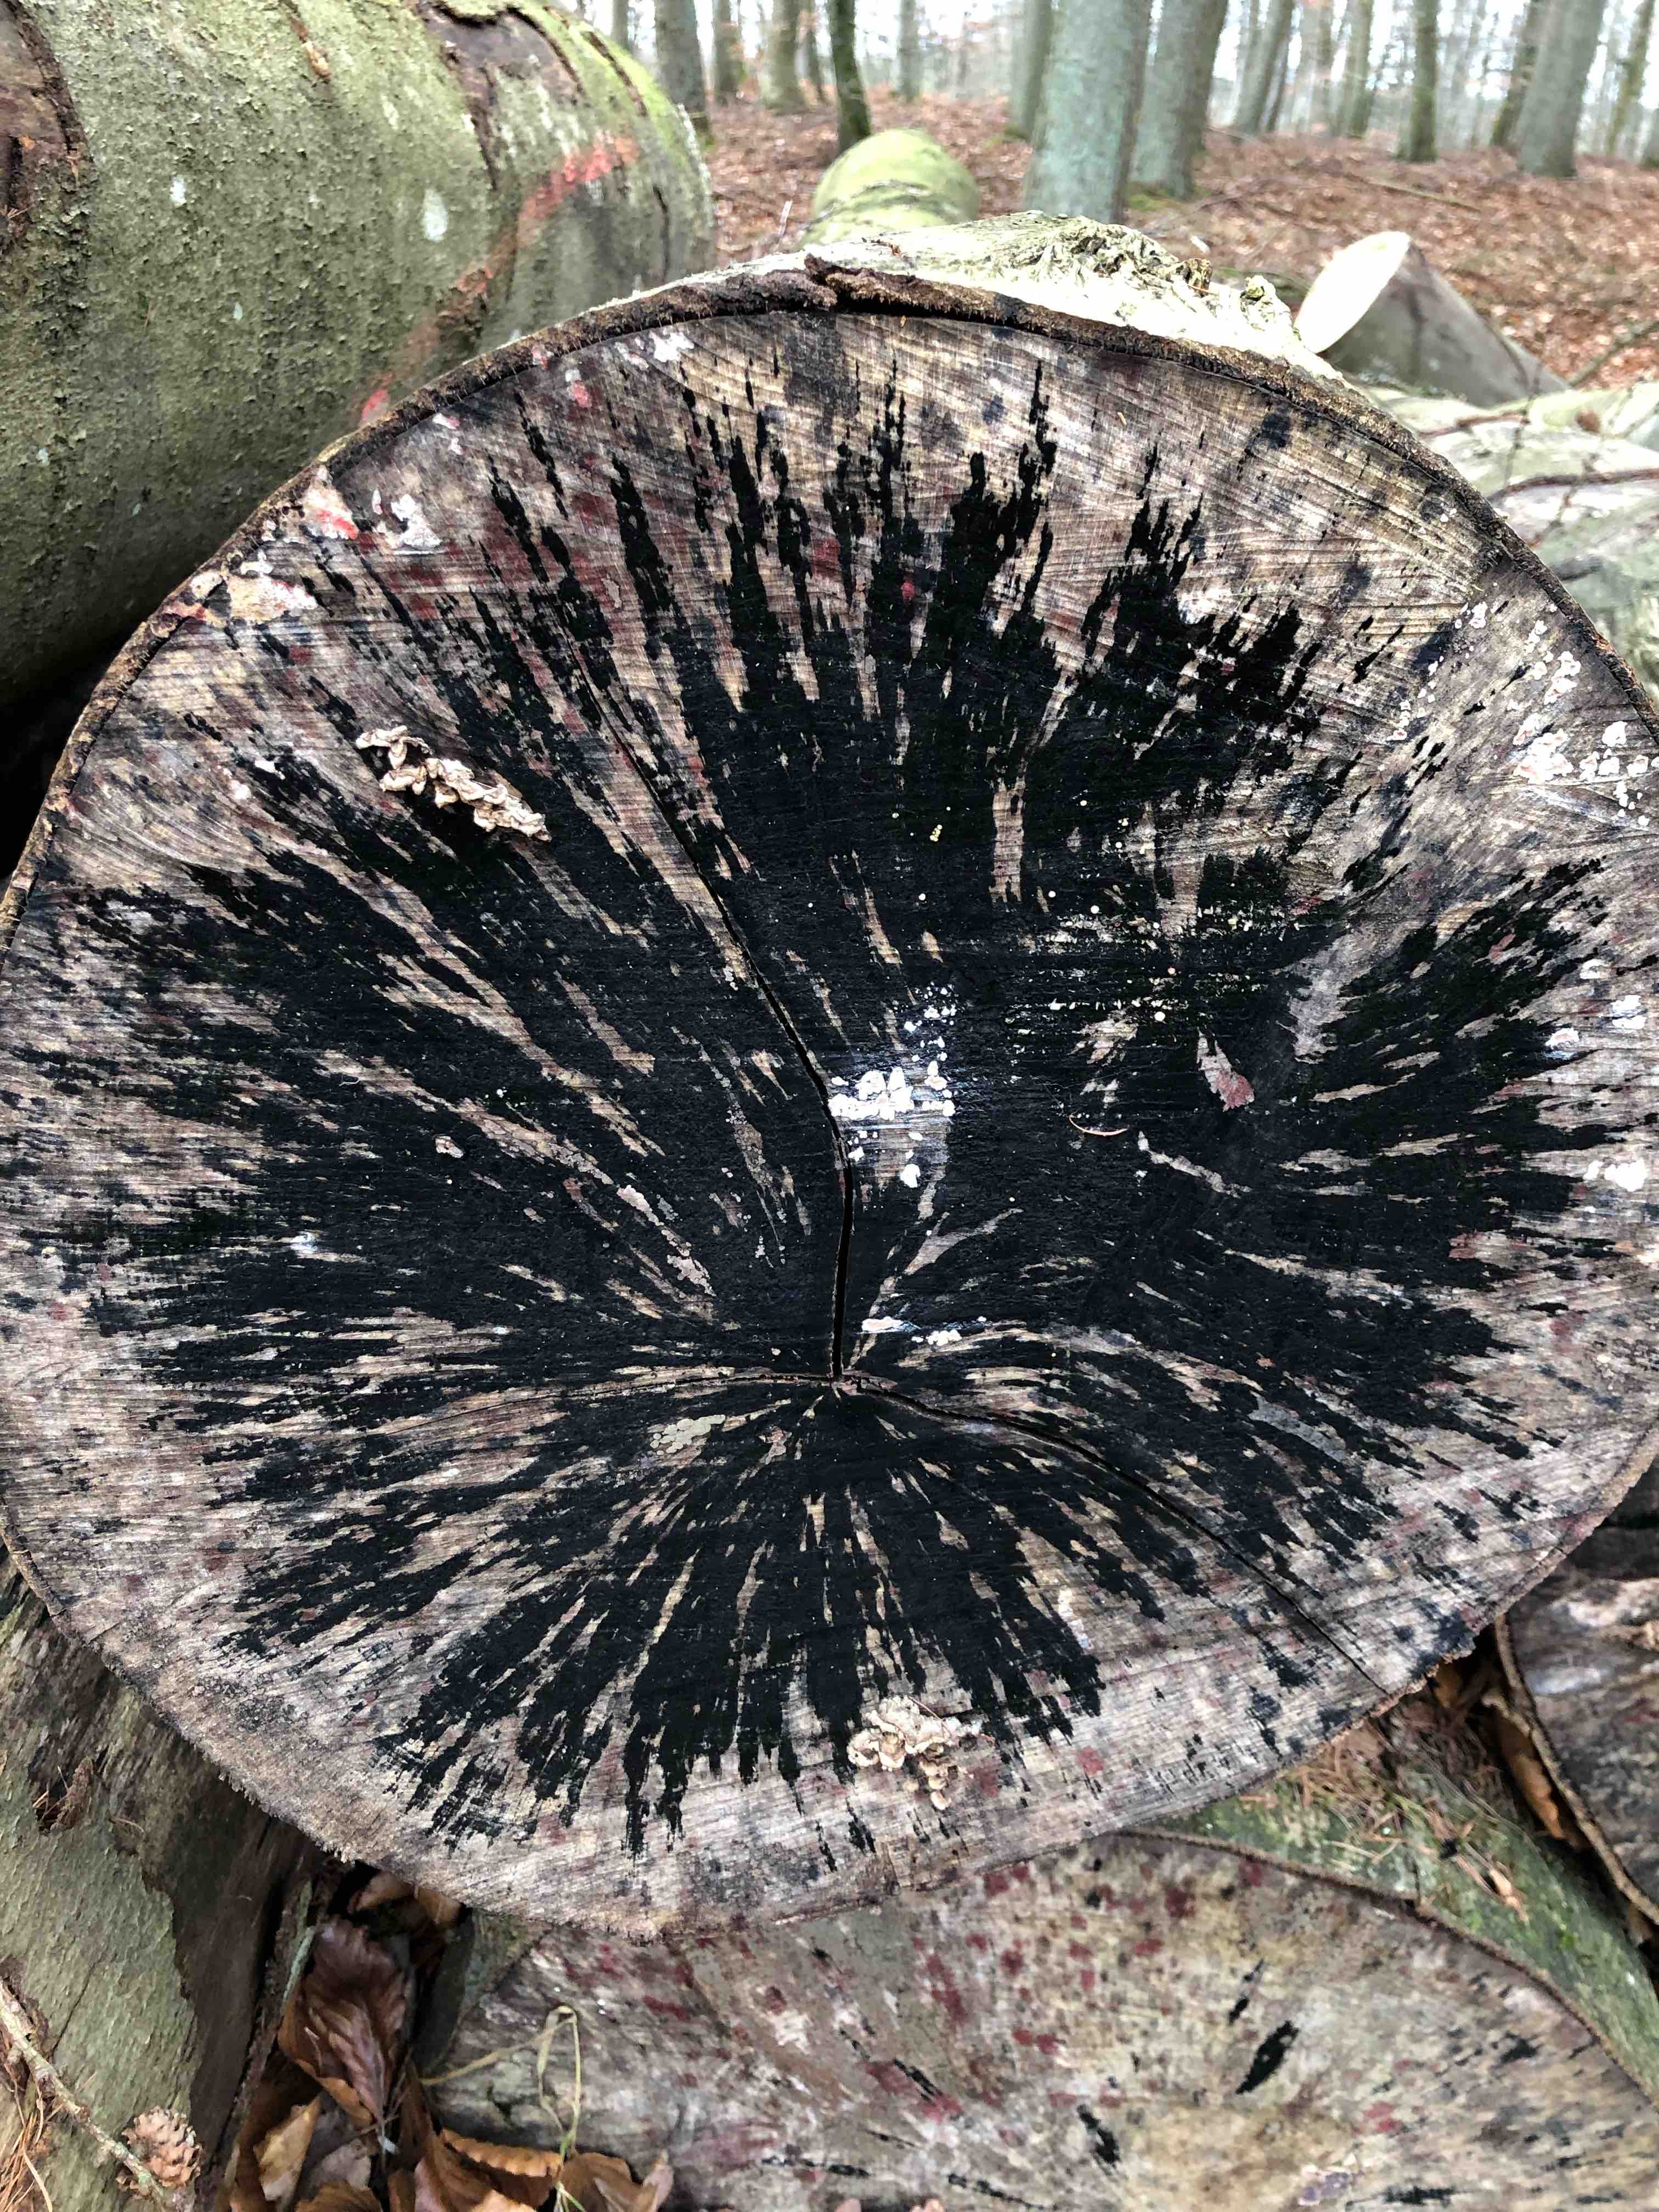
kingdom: Fungi
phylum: Ascomycota
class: Leotiomycetes
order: Helotiales
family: Helotiaceae
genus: Bispora
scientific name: Bispora pallescens
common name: måtte-snitskive
